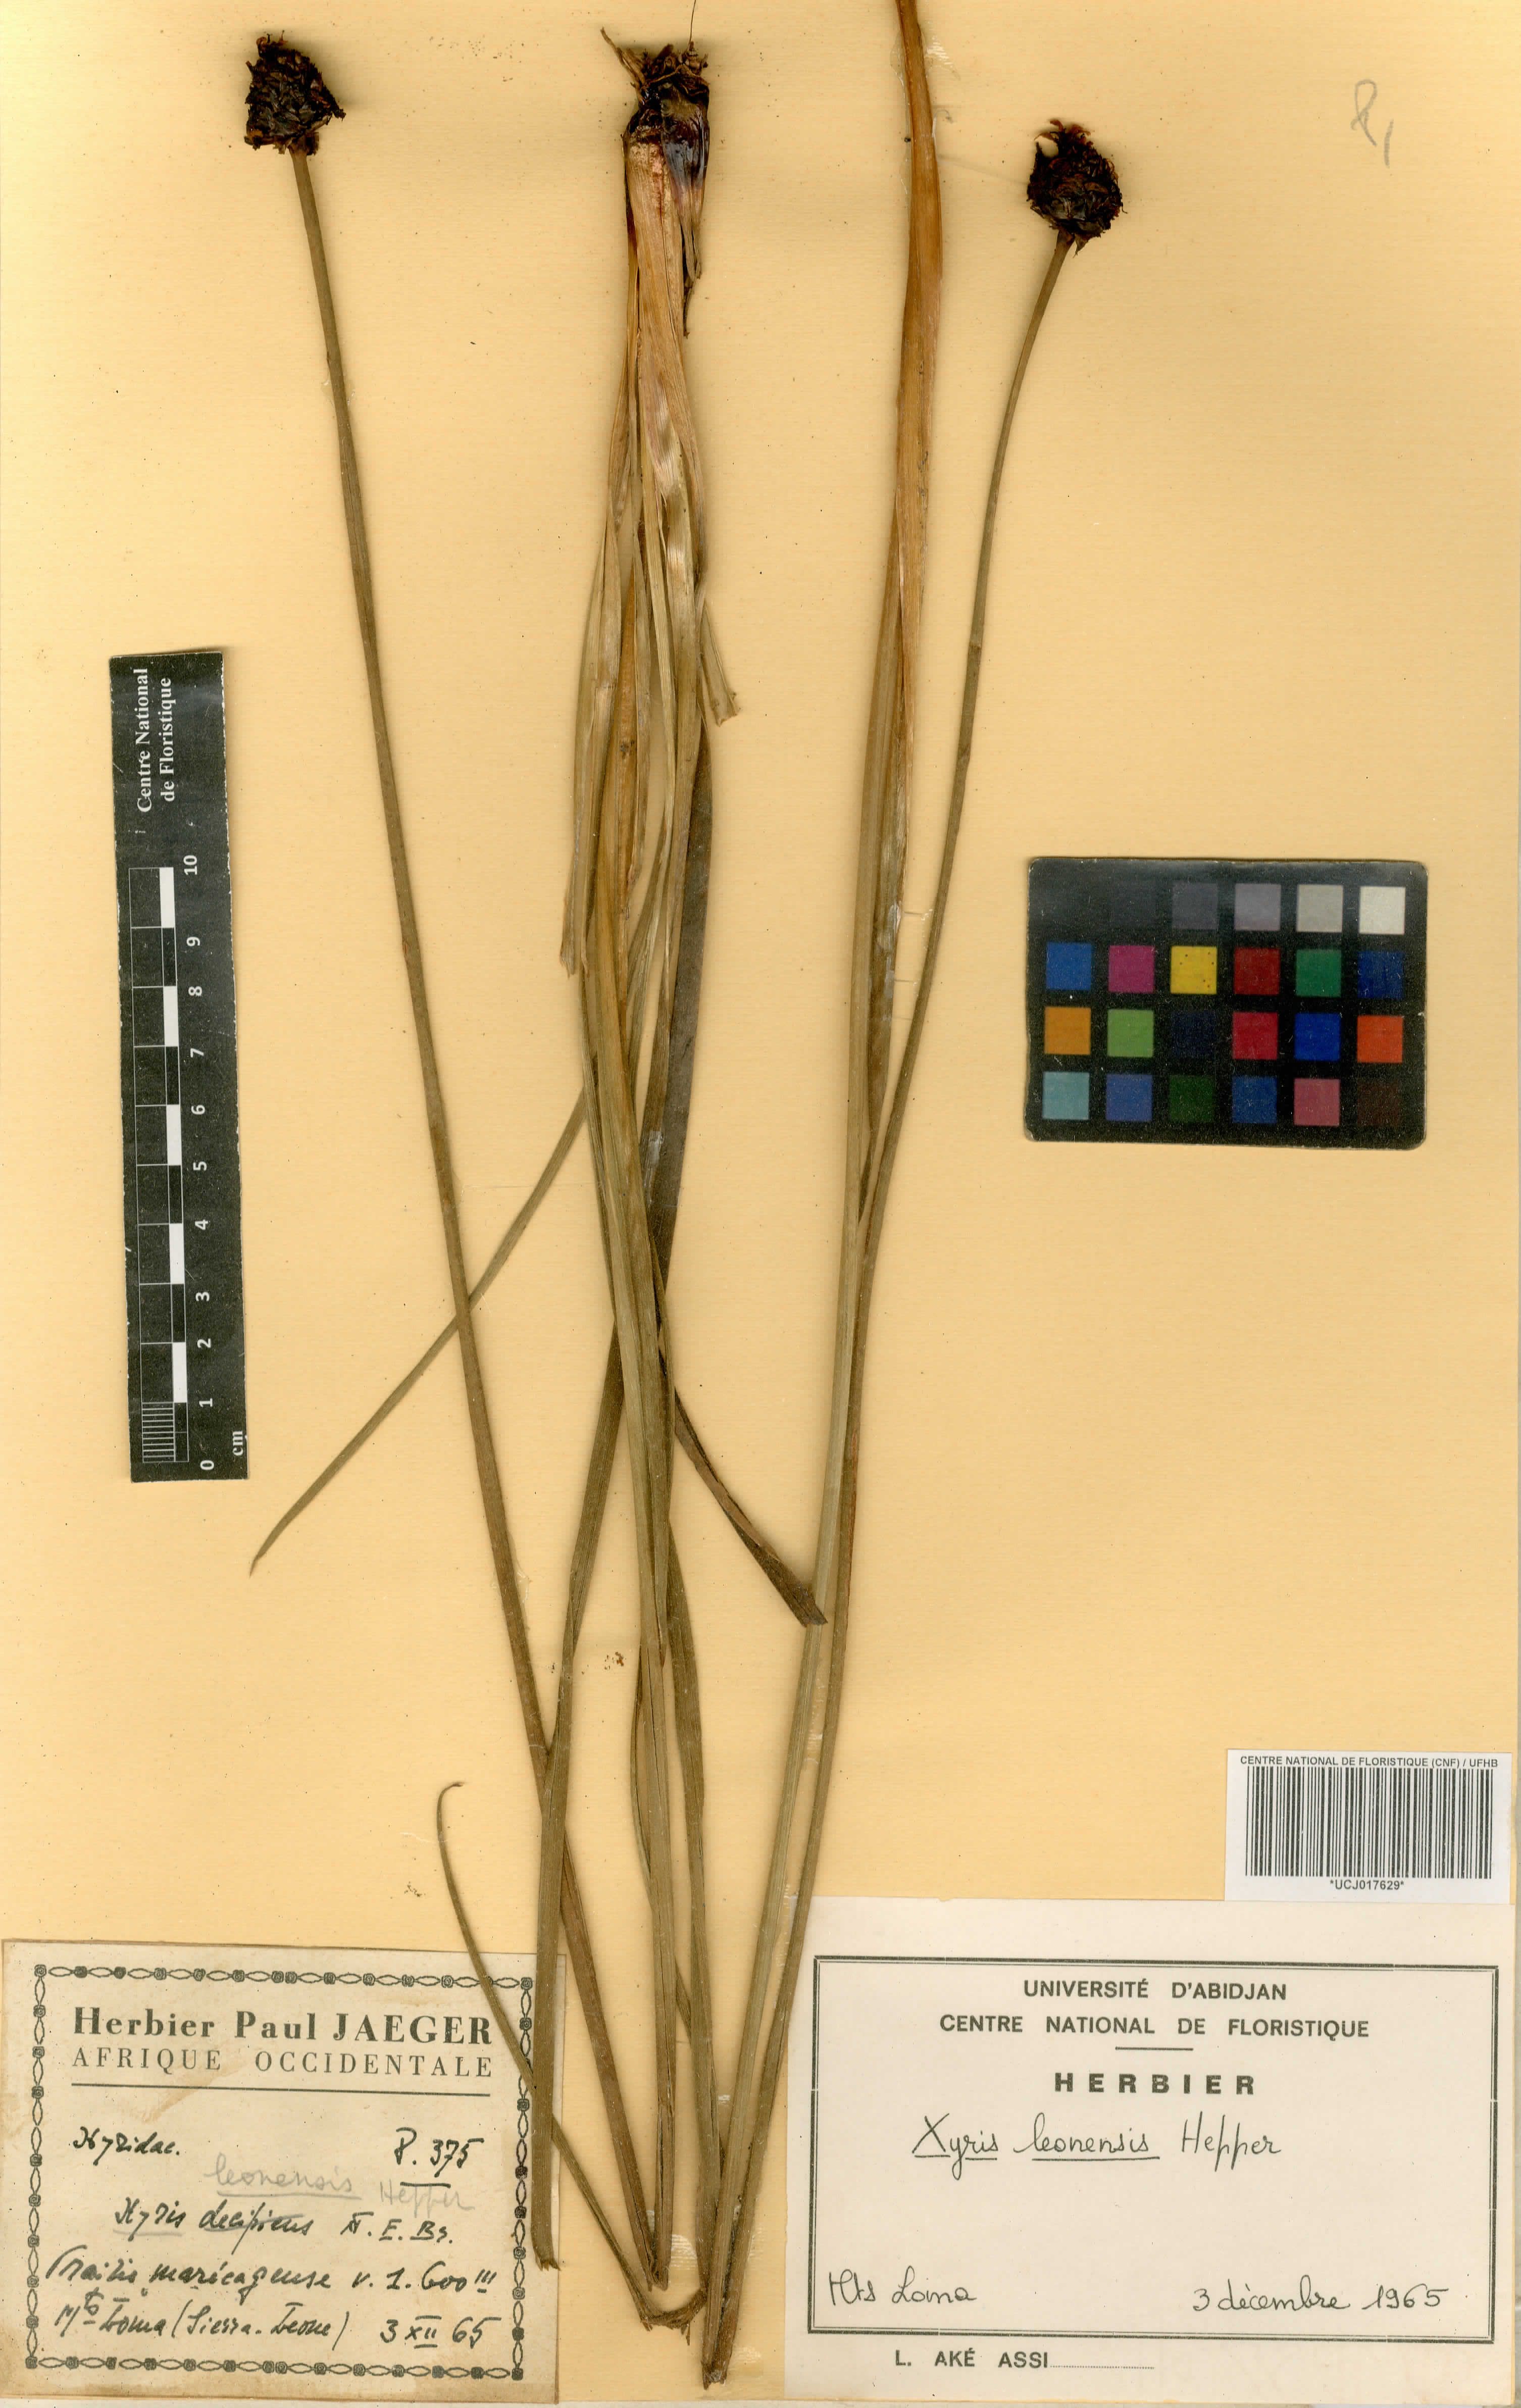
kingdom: Plantae
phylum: Tracheophyta
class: Liliopsida
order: Poales
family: Xyridaceae
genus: Xyris
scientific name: Xyris leonensis
